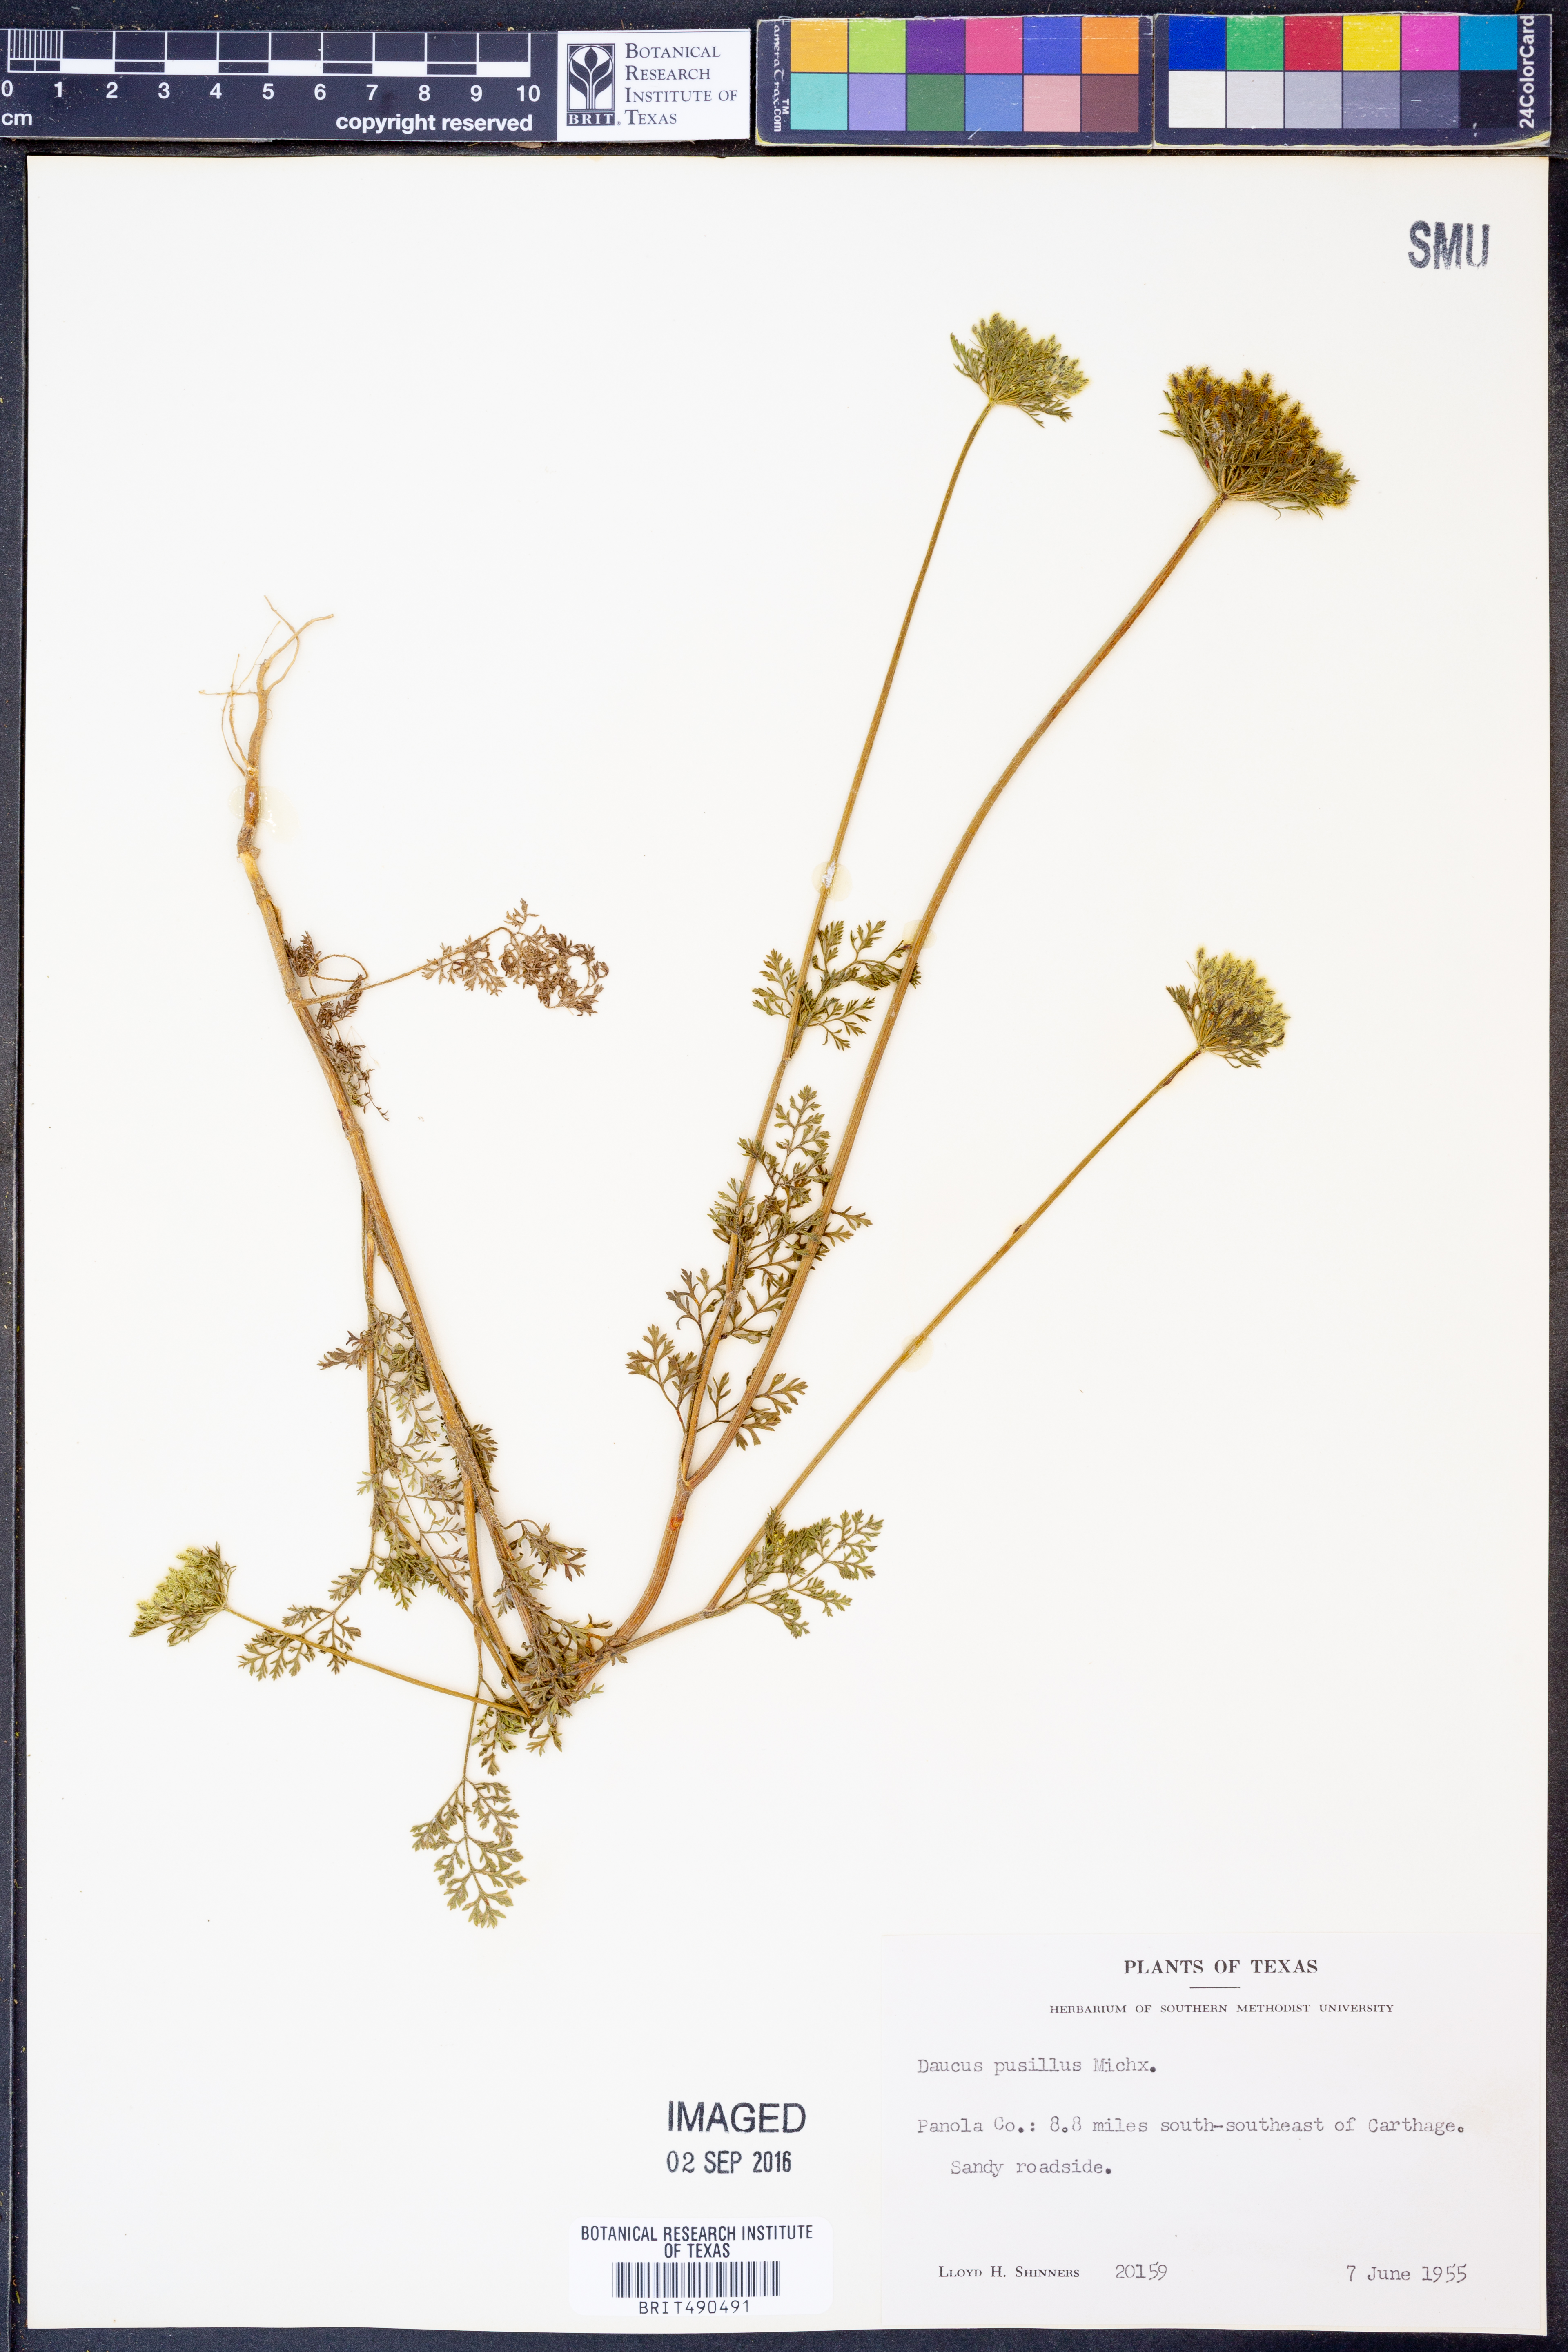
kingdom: Plantae
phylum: Tracheophyta
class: Magnoliopsida
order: Apiales
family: Apiaceae
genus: Daucus
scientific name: Daucus pusillus
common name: Southwest wild carrot
